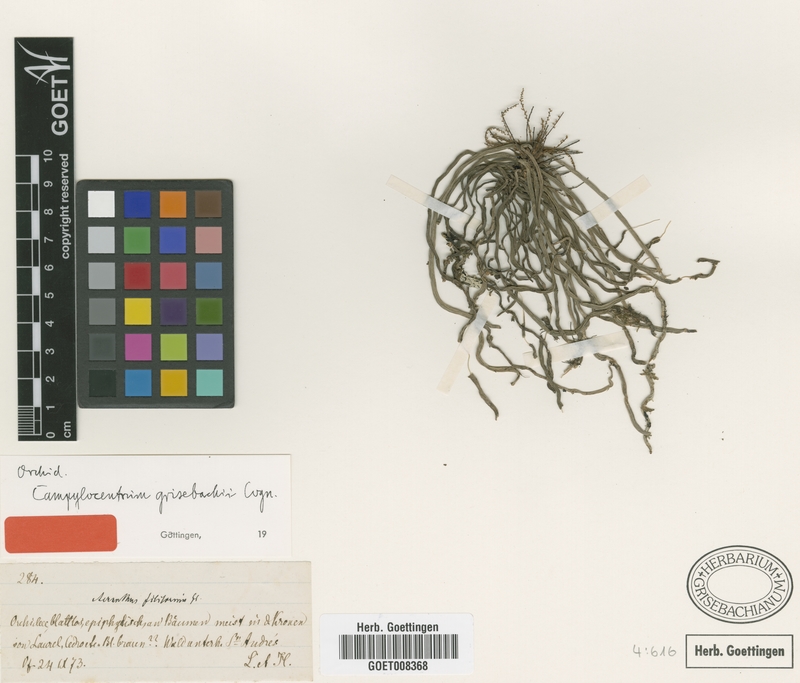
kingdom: Plantae
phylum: Tracheophyta
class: Liliopsida
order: Asparagales
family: Orchidaceae
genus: Campylocentrum
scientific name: Campylocentrum grisebachii
